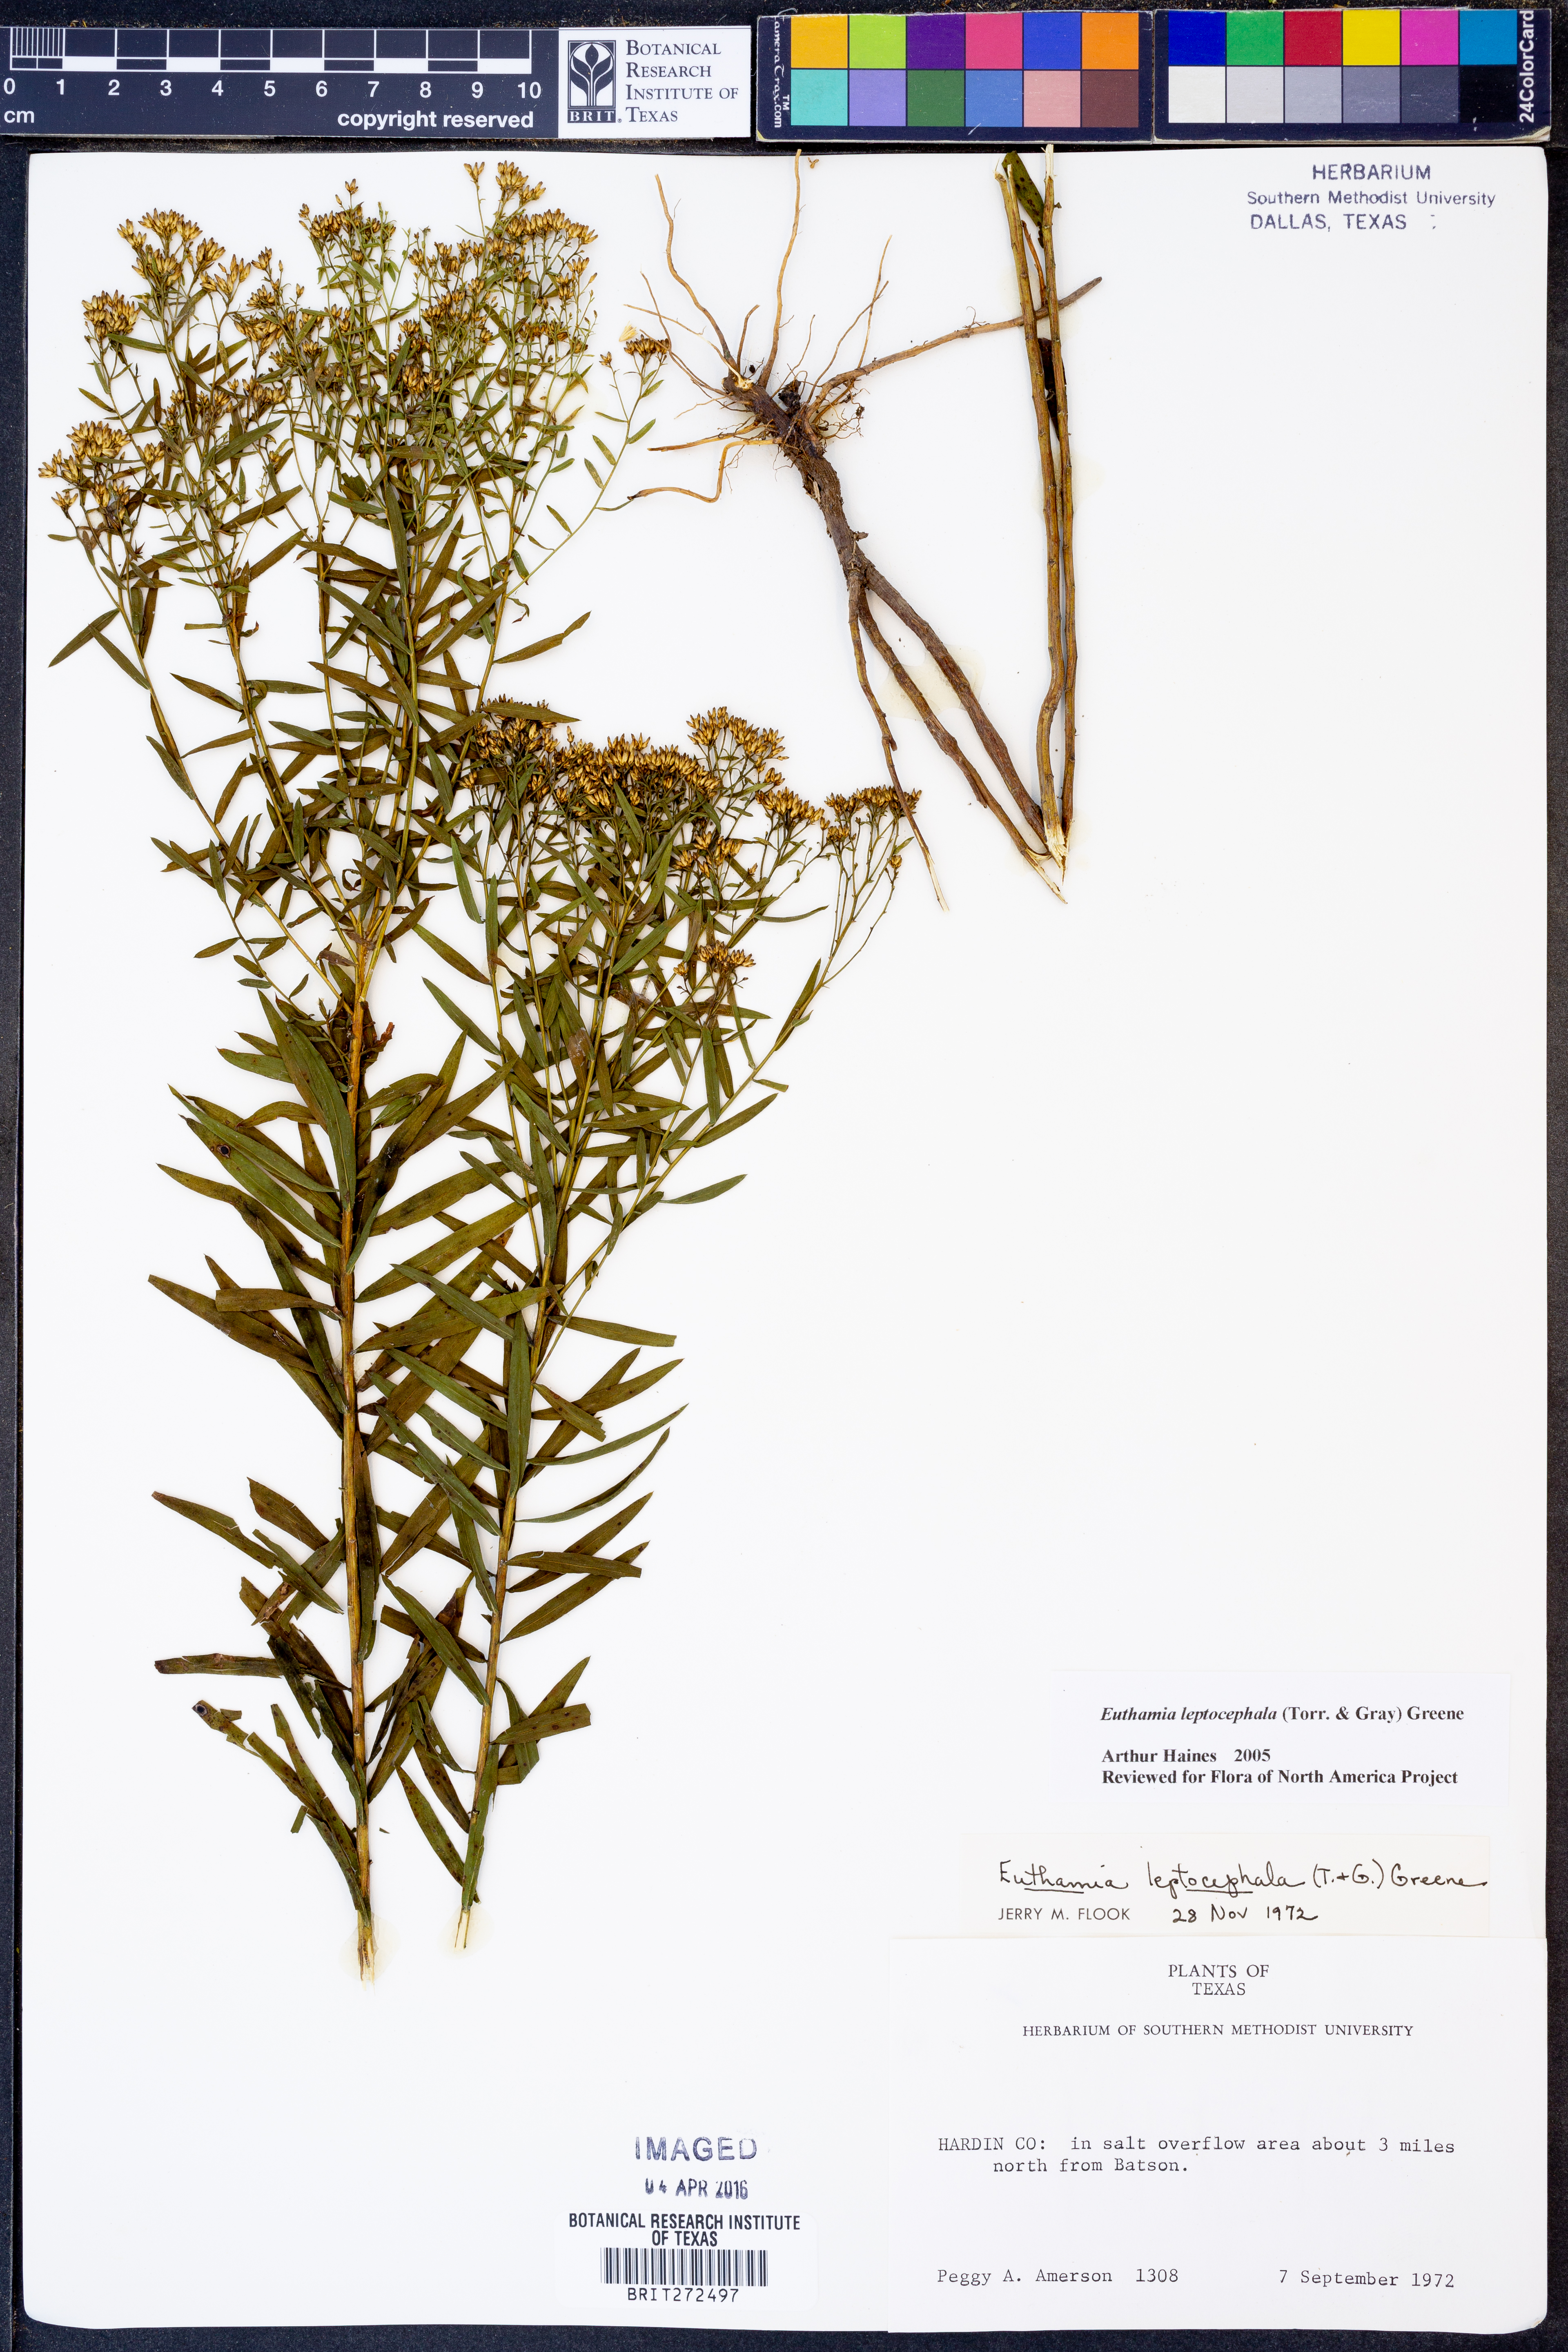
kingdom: Plantae
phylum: Tracheophyta
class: Magnoliopsida
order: Asterales
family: Asteraceae
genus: Euthamia
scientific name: Euthamia leptocephala
